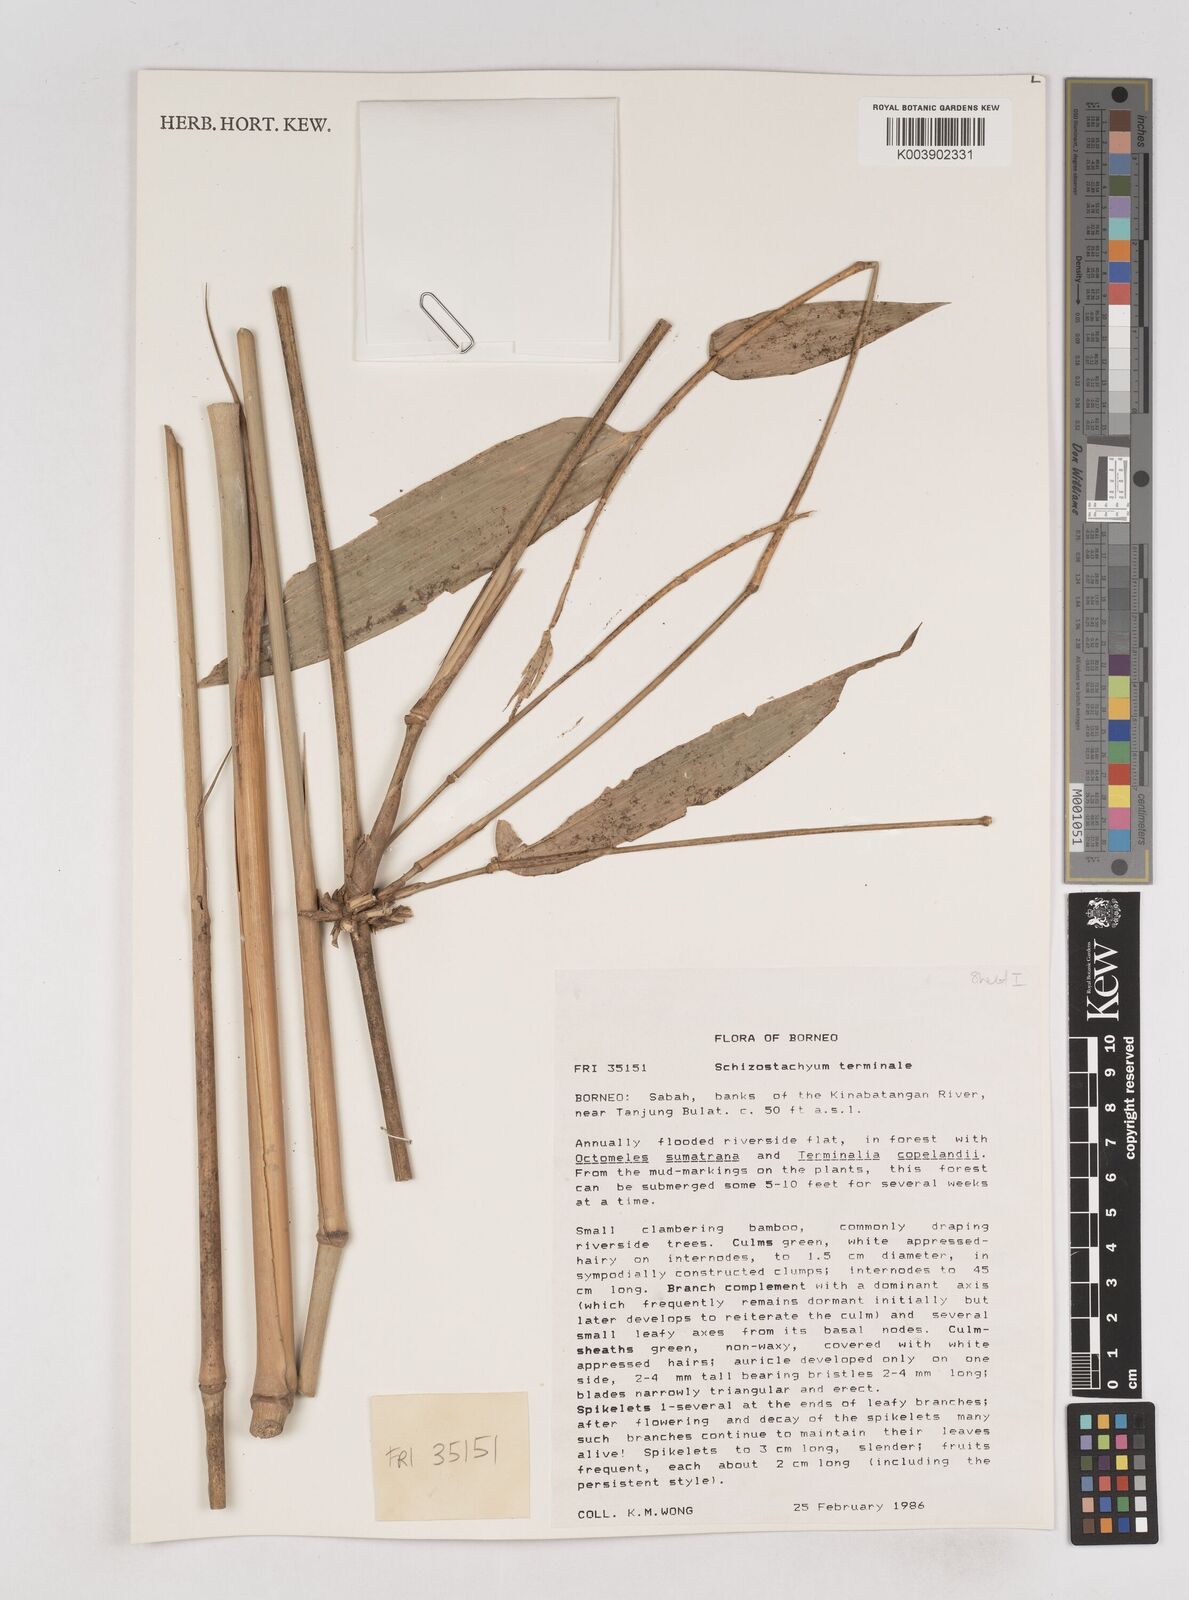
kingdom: Plantae
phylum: Tracheophyta
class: Liliopsida
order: Poales
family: Poaceae
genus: Schizostachyum
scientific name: Schizostachyum terminale
